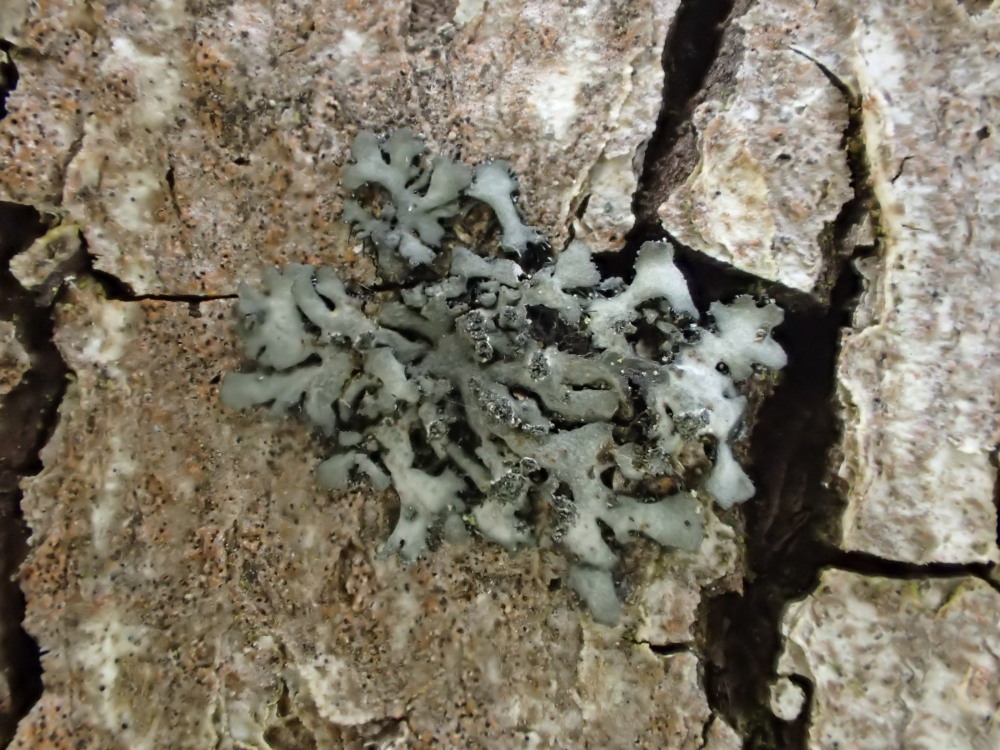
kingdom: Fungi
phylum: Ascomycota
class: Lecanoromycetes
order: Caliciales
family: Physciaceae
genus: Phaeophyscia
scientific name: Phaeophyscia orbicularis
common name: grågrøn rosetlav
